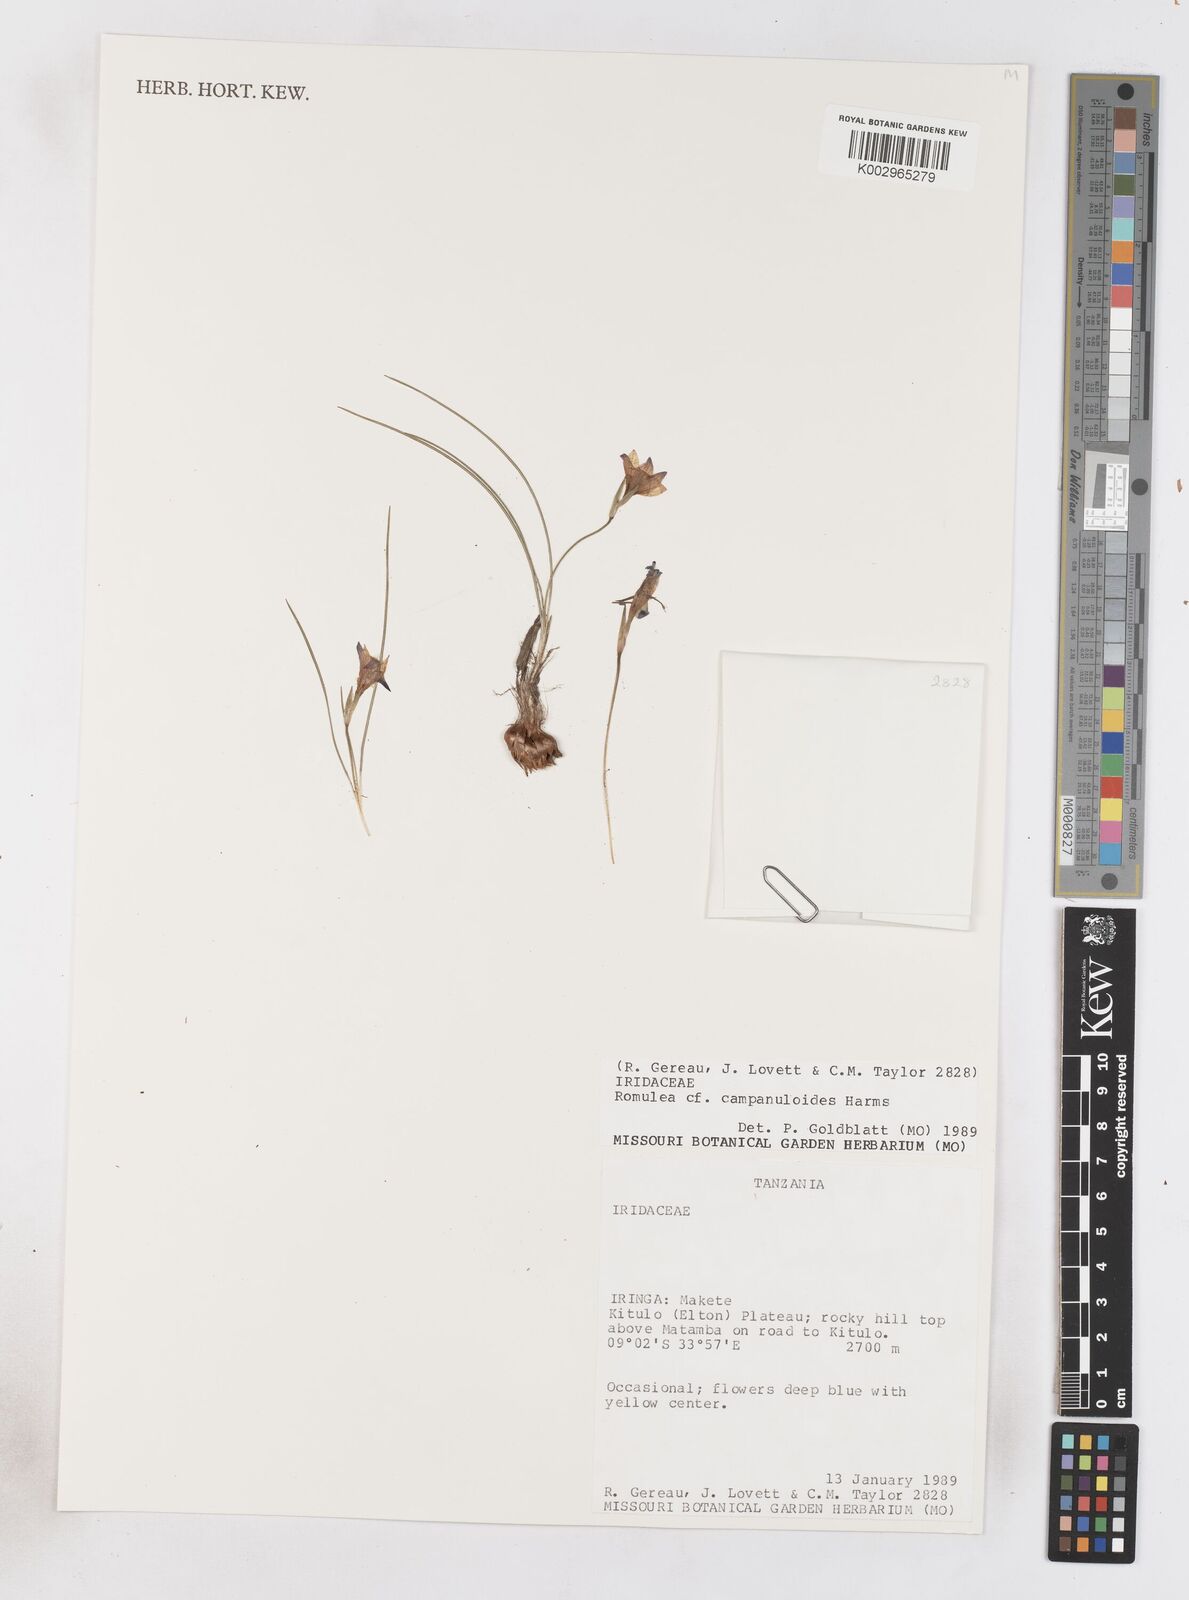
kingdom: Plantae
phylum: Tracheophyta
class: Liliopsida
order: Asparagales
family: Iridaceae
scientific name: Iridaceae
